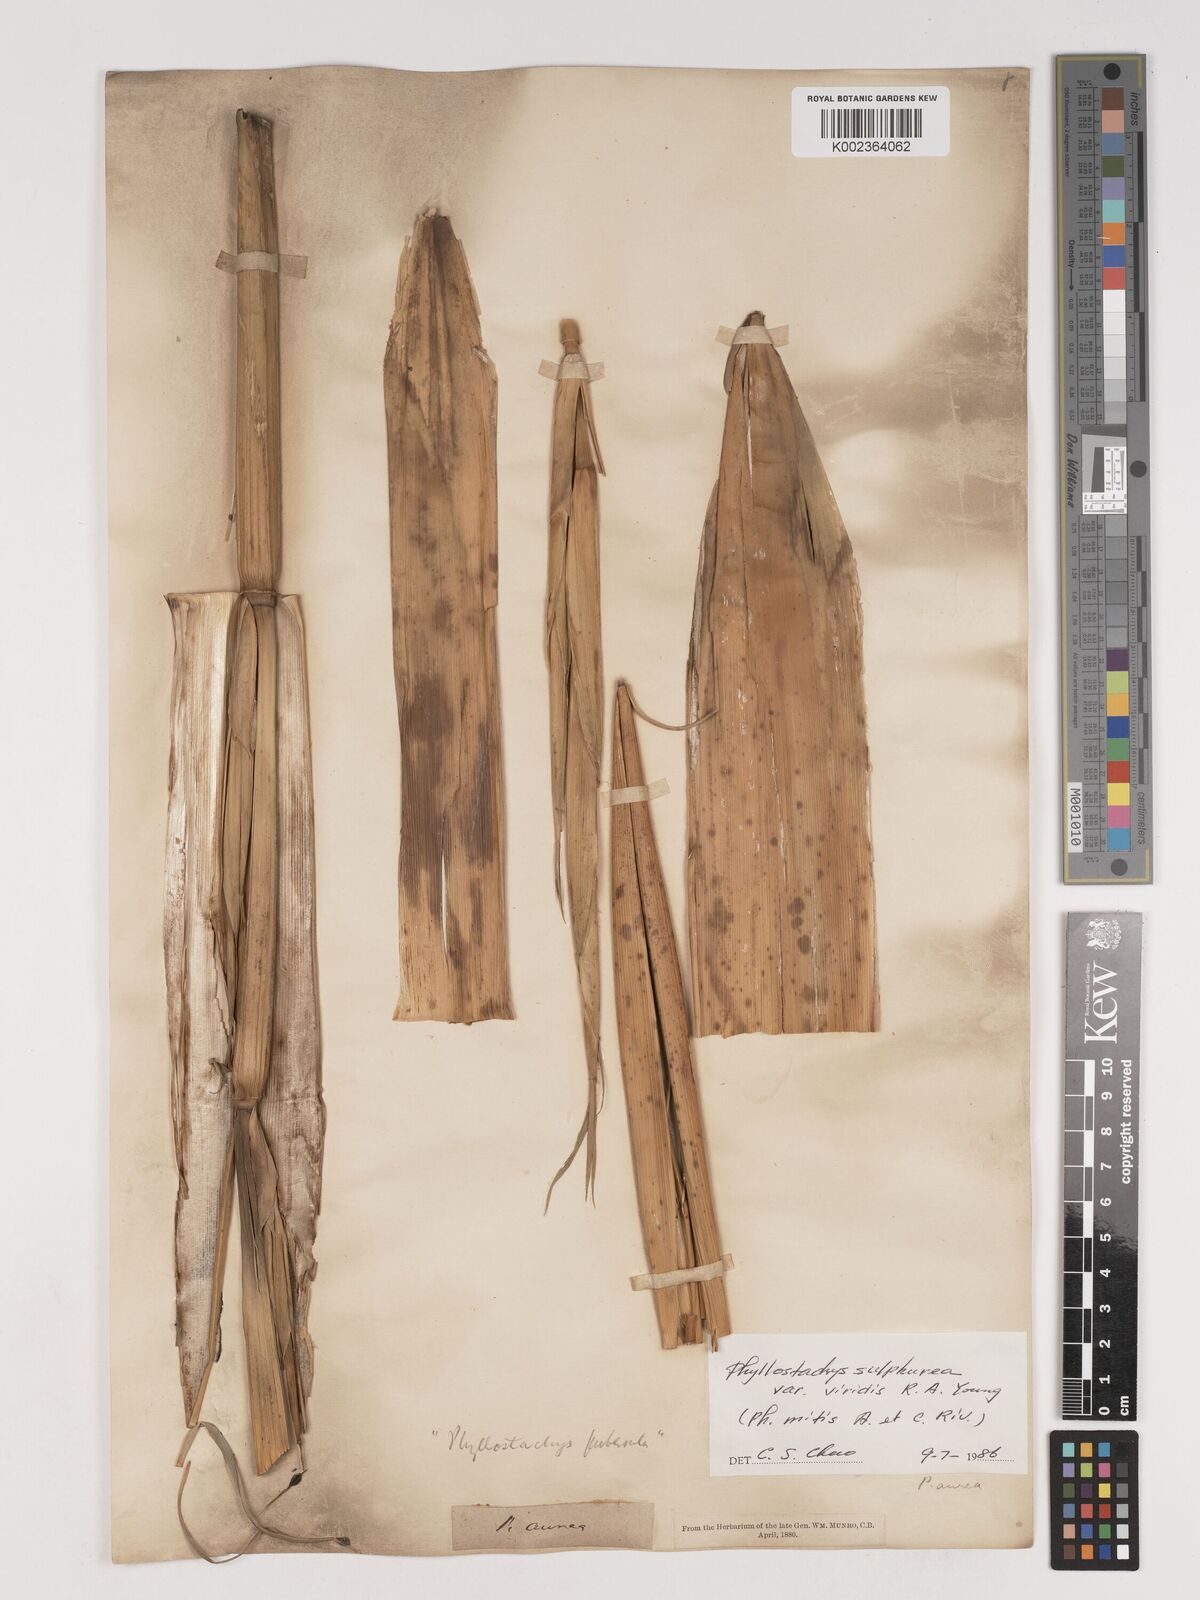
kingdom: Plantae
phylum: Tracheophyta
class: Liliopsida
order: Poales
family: Poaceae
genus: Phyllostachys
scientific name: Phyllostachys sulphurea
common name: Sulphur bamboo
